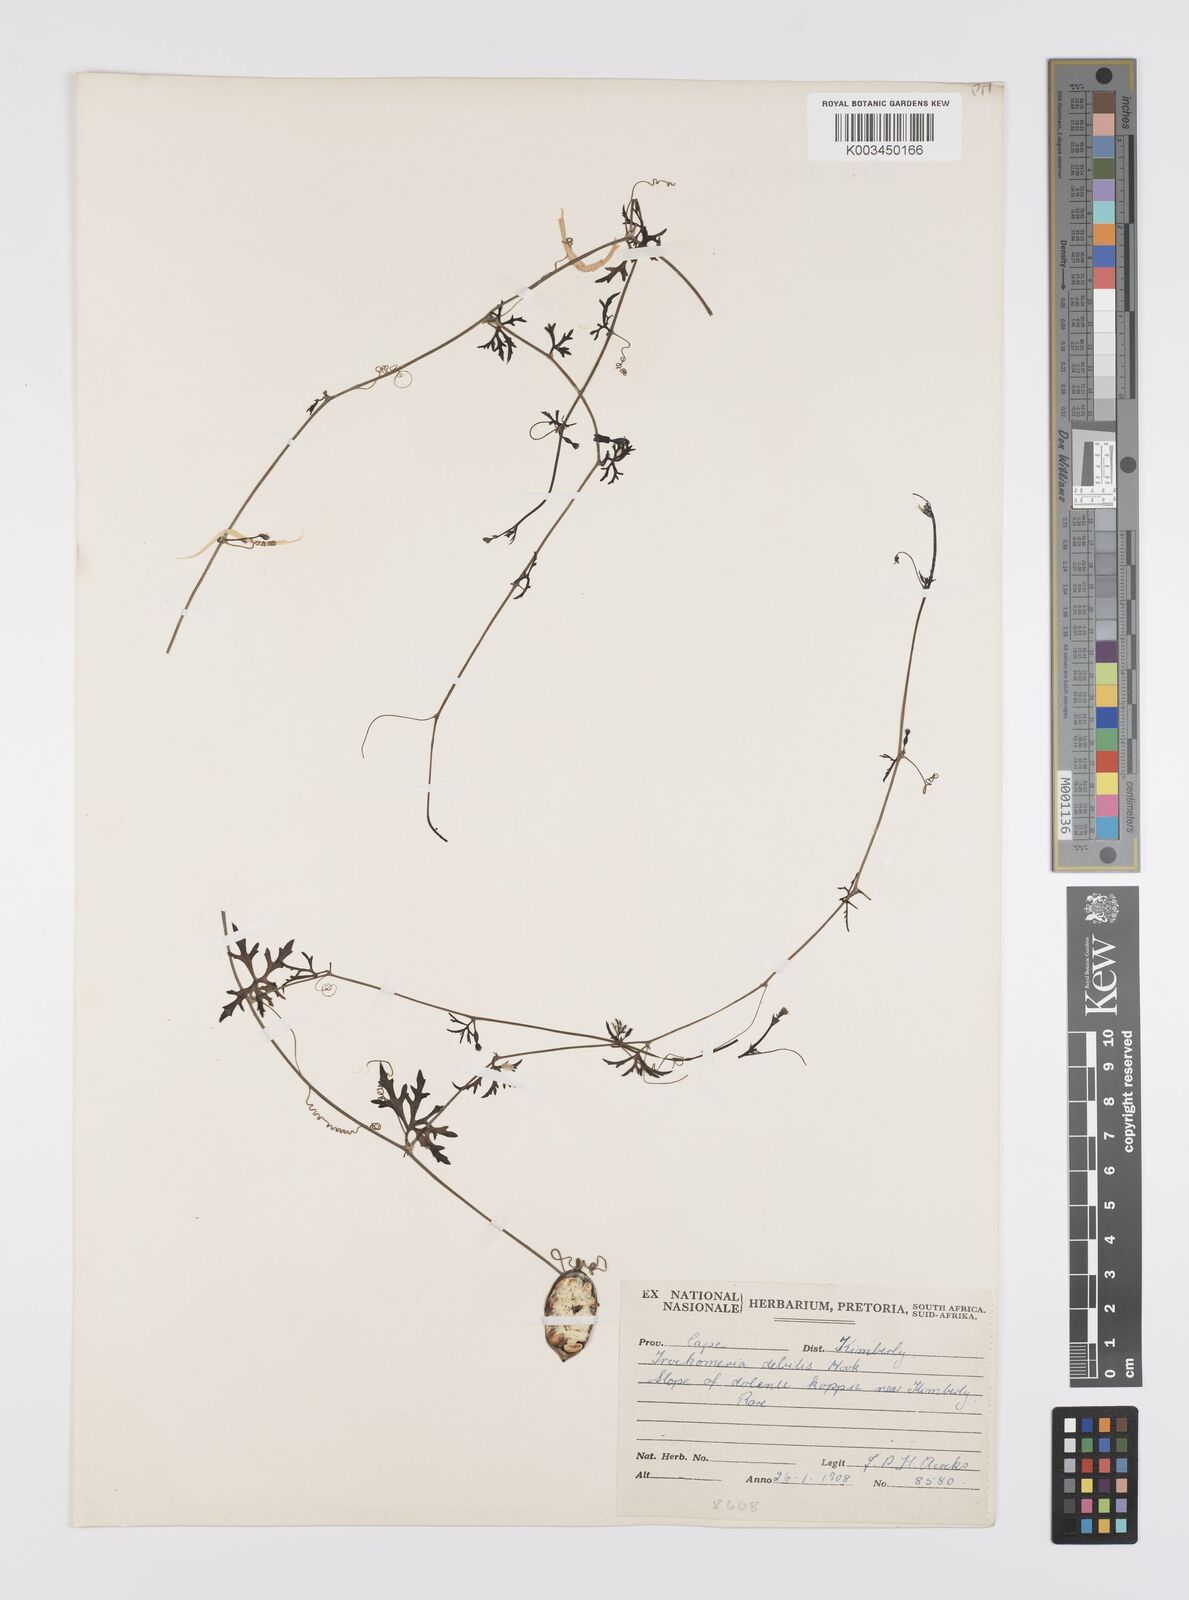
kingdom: Plantae
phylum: Tracheophyta
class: Magnoliopsida
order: Cucurbitales
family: Cucurbitaceae
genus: Trochomeria
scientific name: Trochomeria debilis
